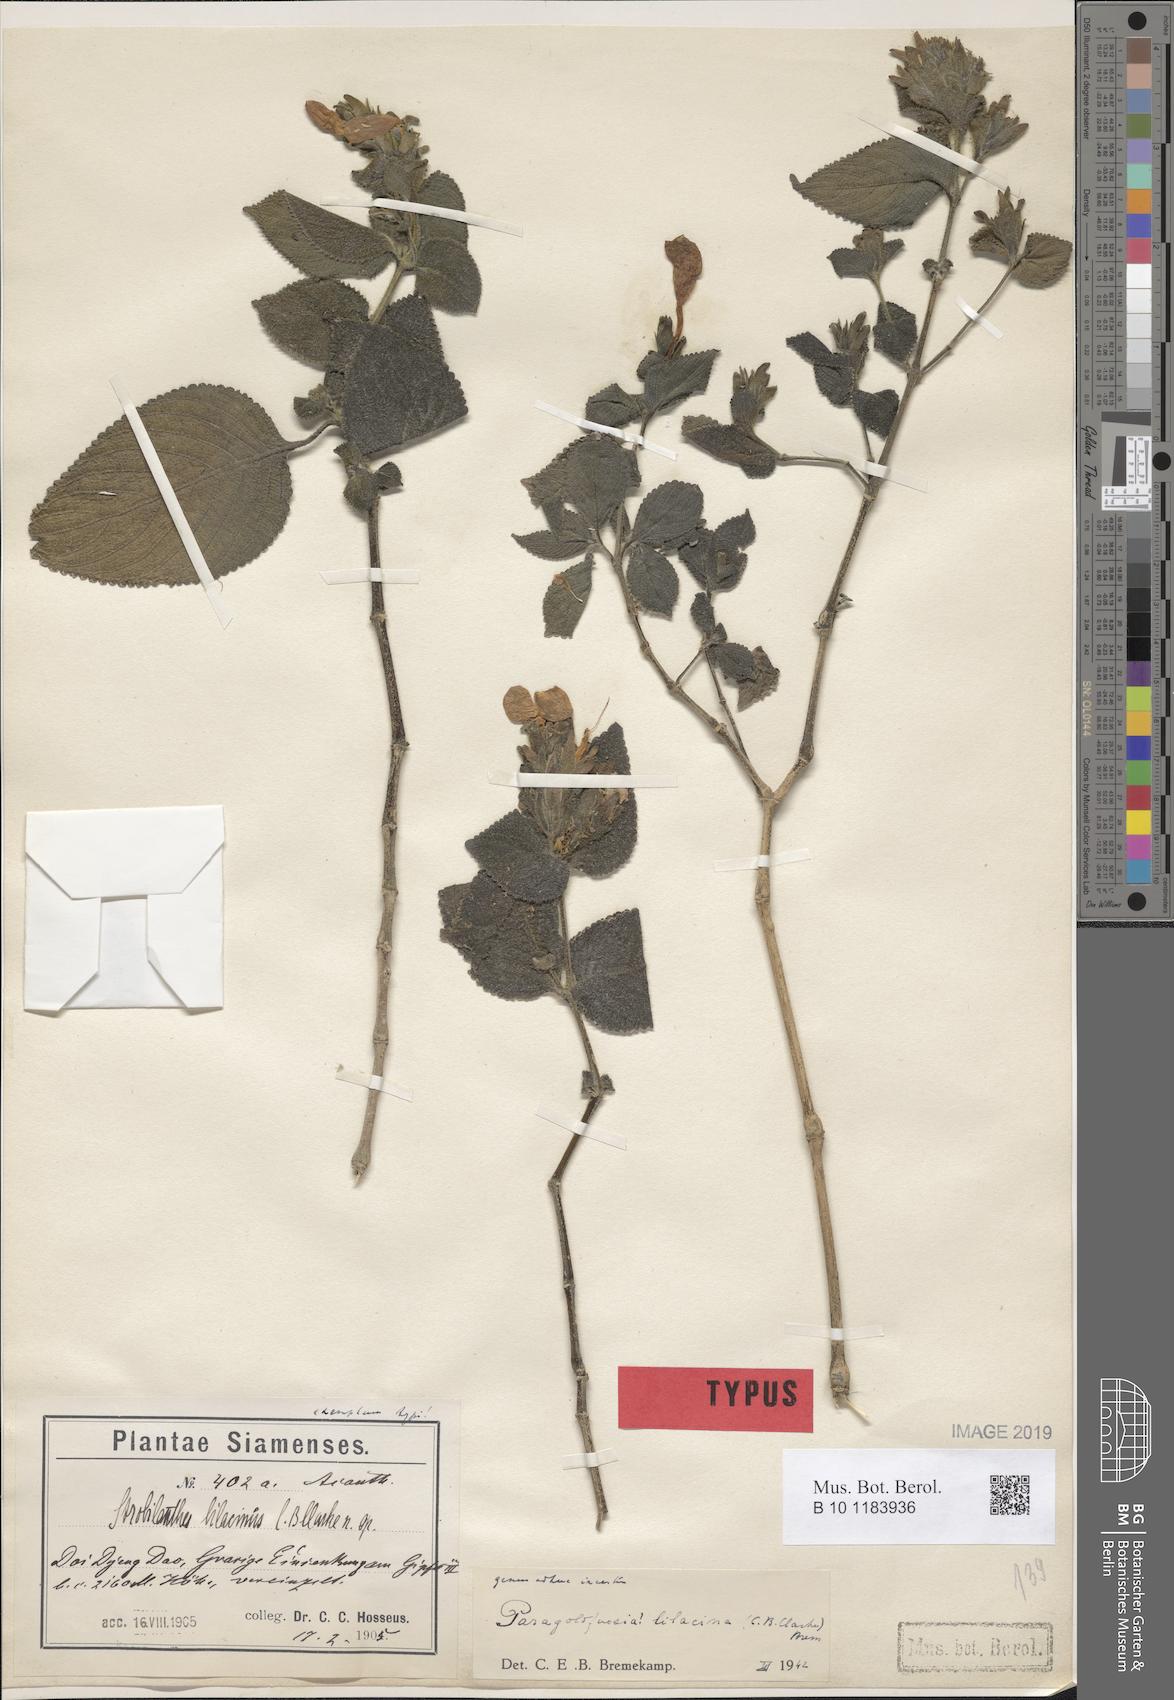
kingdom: Plantae
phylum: Tracheophyta
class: Magnoliopsida
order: Lamiales
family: Acanthaceae
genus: Strobilanthes
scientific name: Strobilanthes karensium
